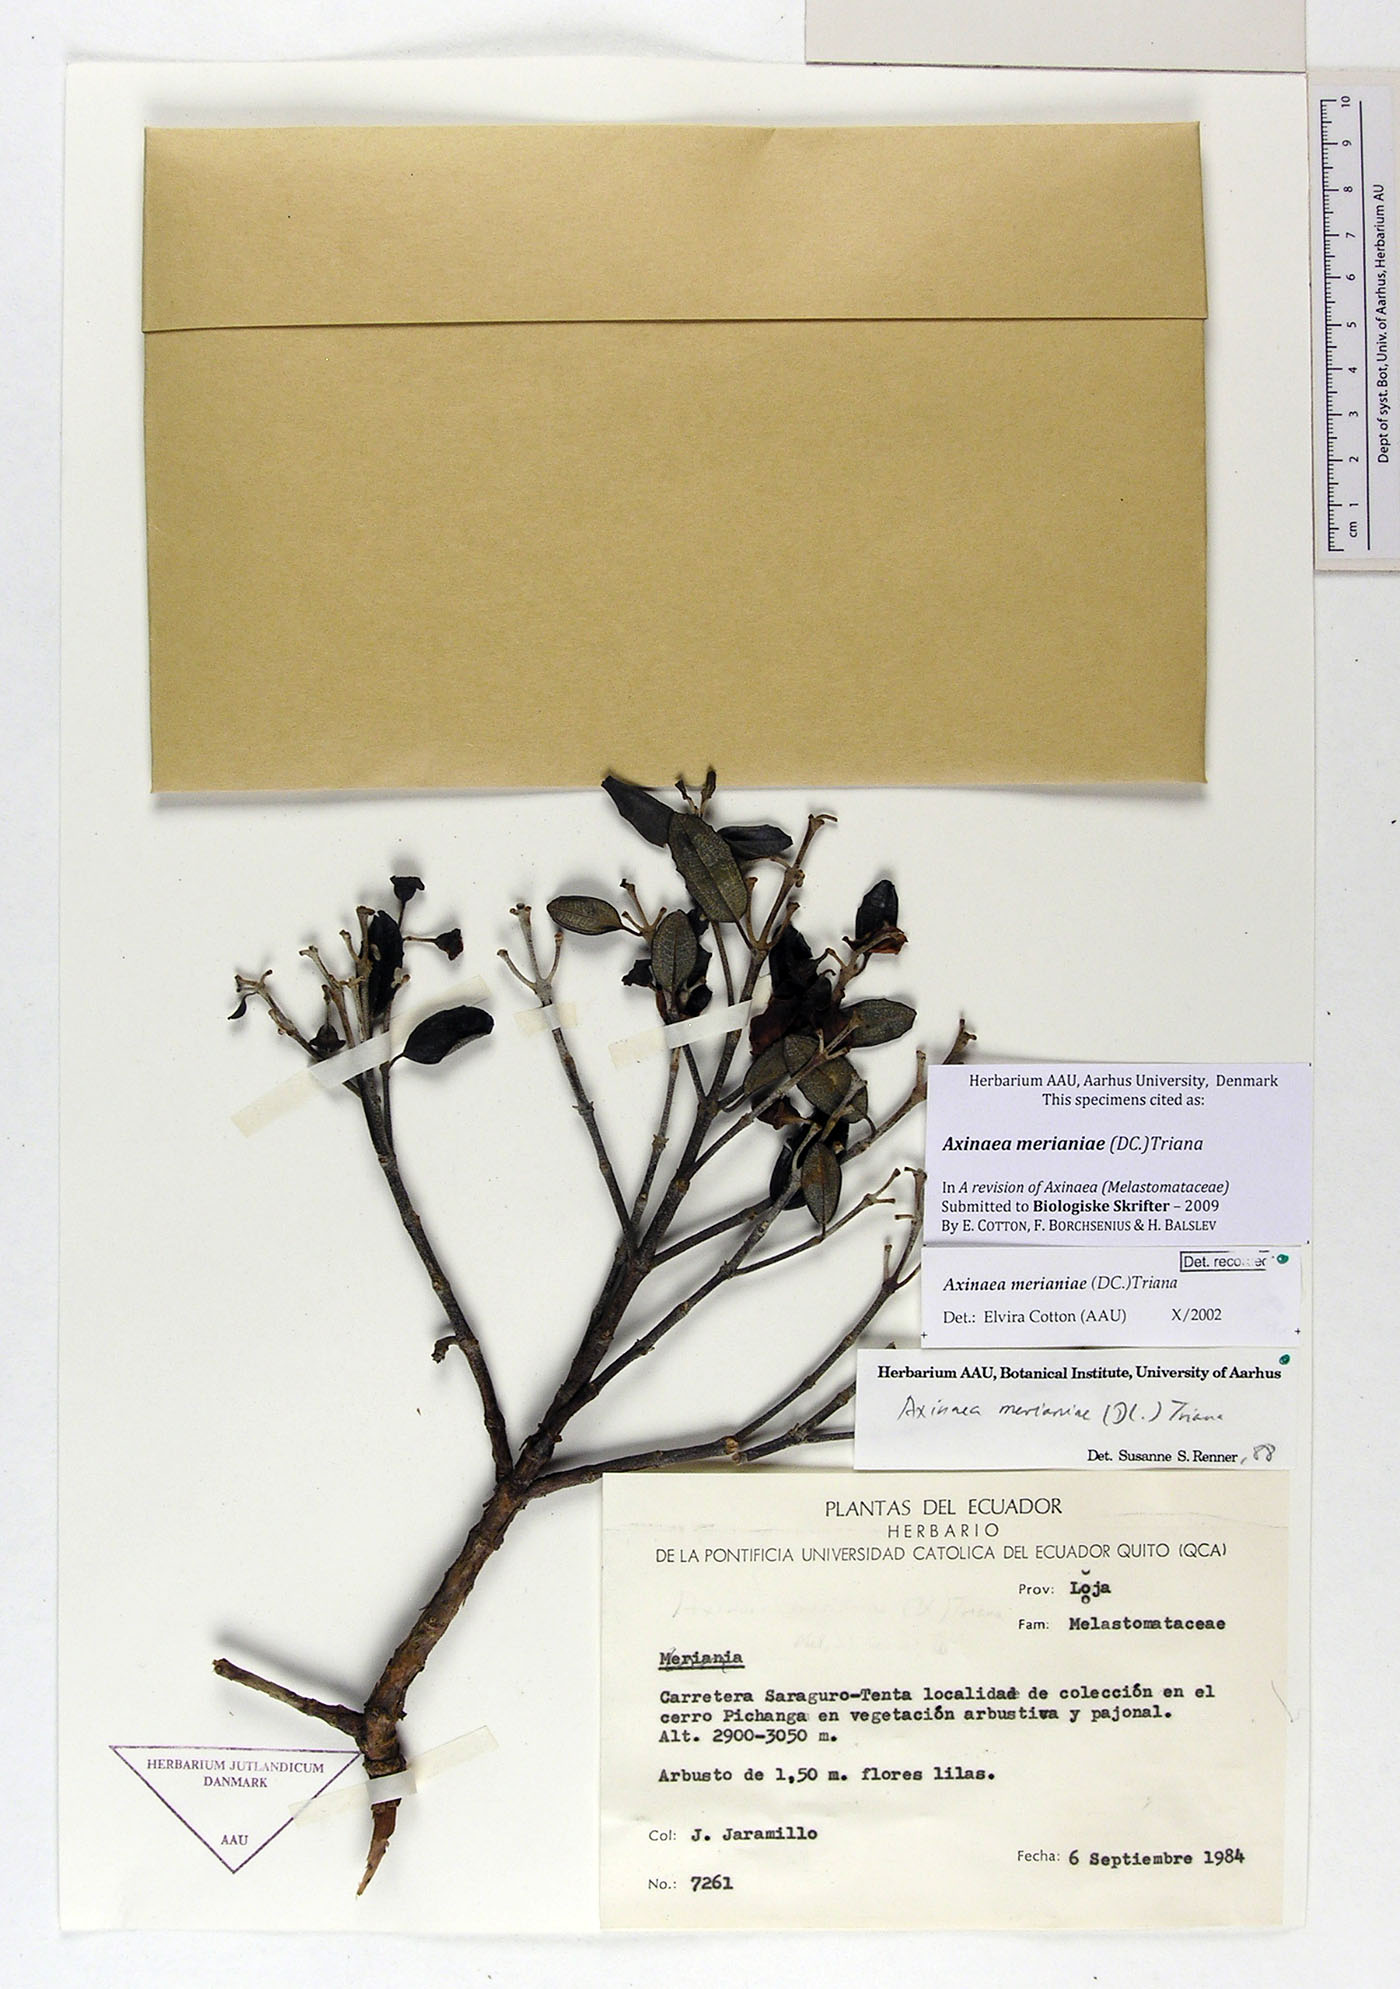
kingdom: Plantae
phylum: Tracheophyta
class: Magnoliopsida
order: Myrtales
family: Melastomataceae
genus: Axinaea
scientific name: Axinaea merianiae
